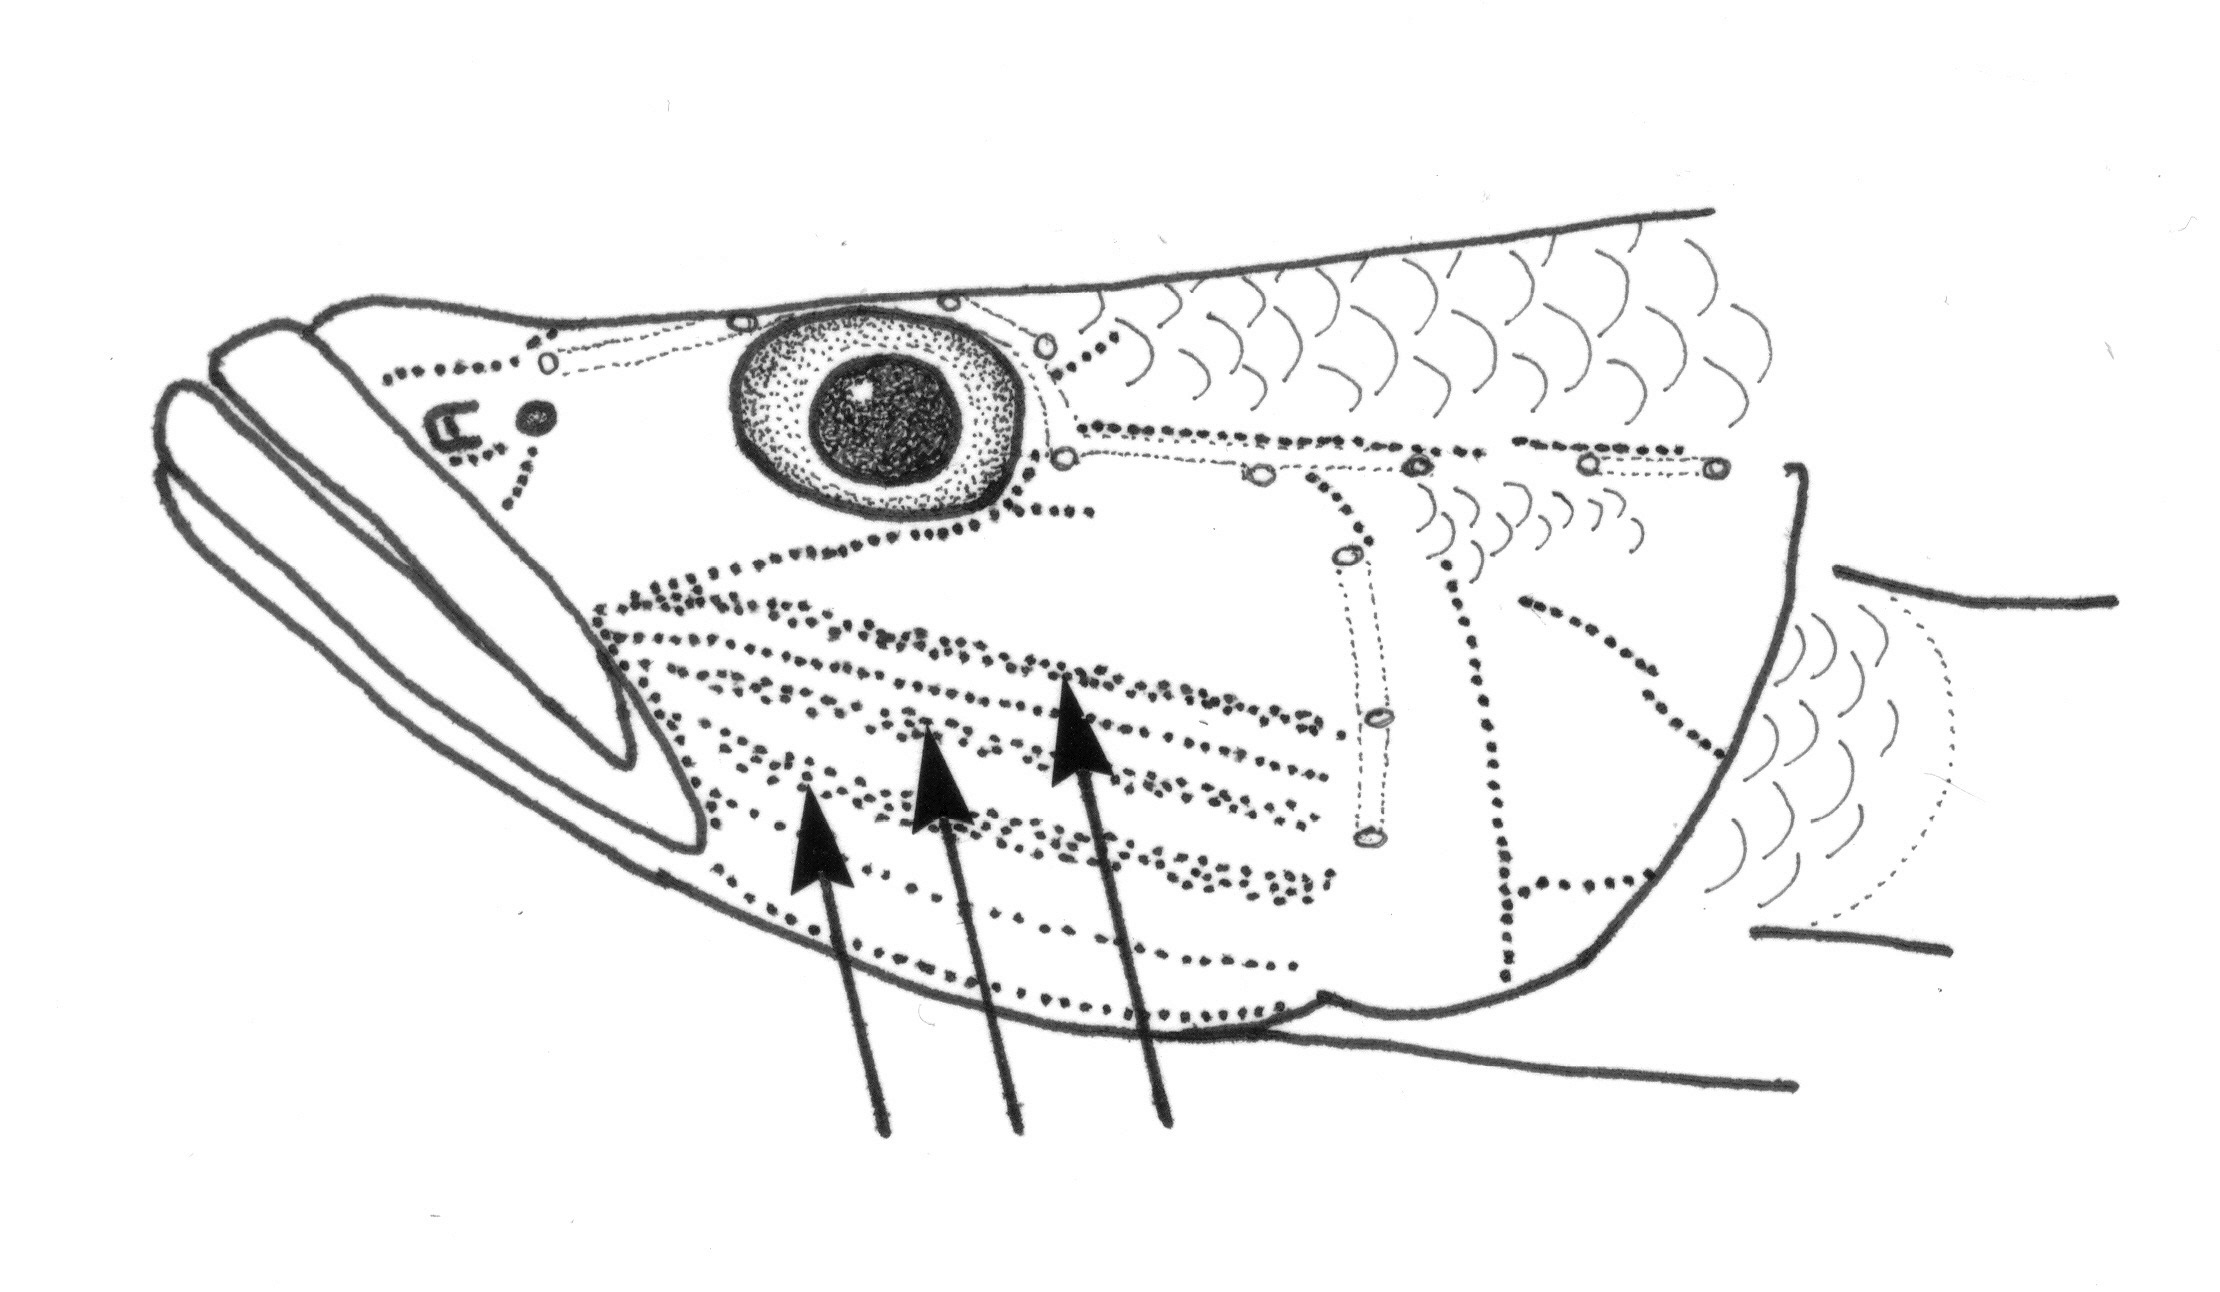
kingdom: Animalia
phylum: Chordata
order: Perciformes
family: Gobiidae
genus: Glossogobius
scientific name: Glossogobius giuris
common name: Tank goby
